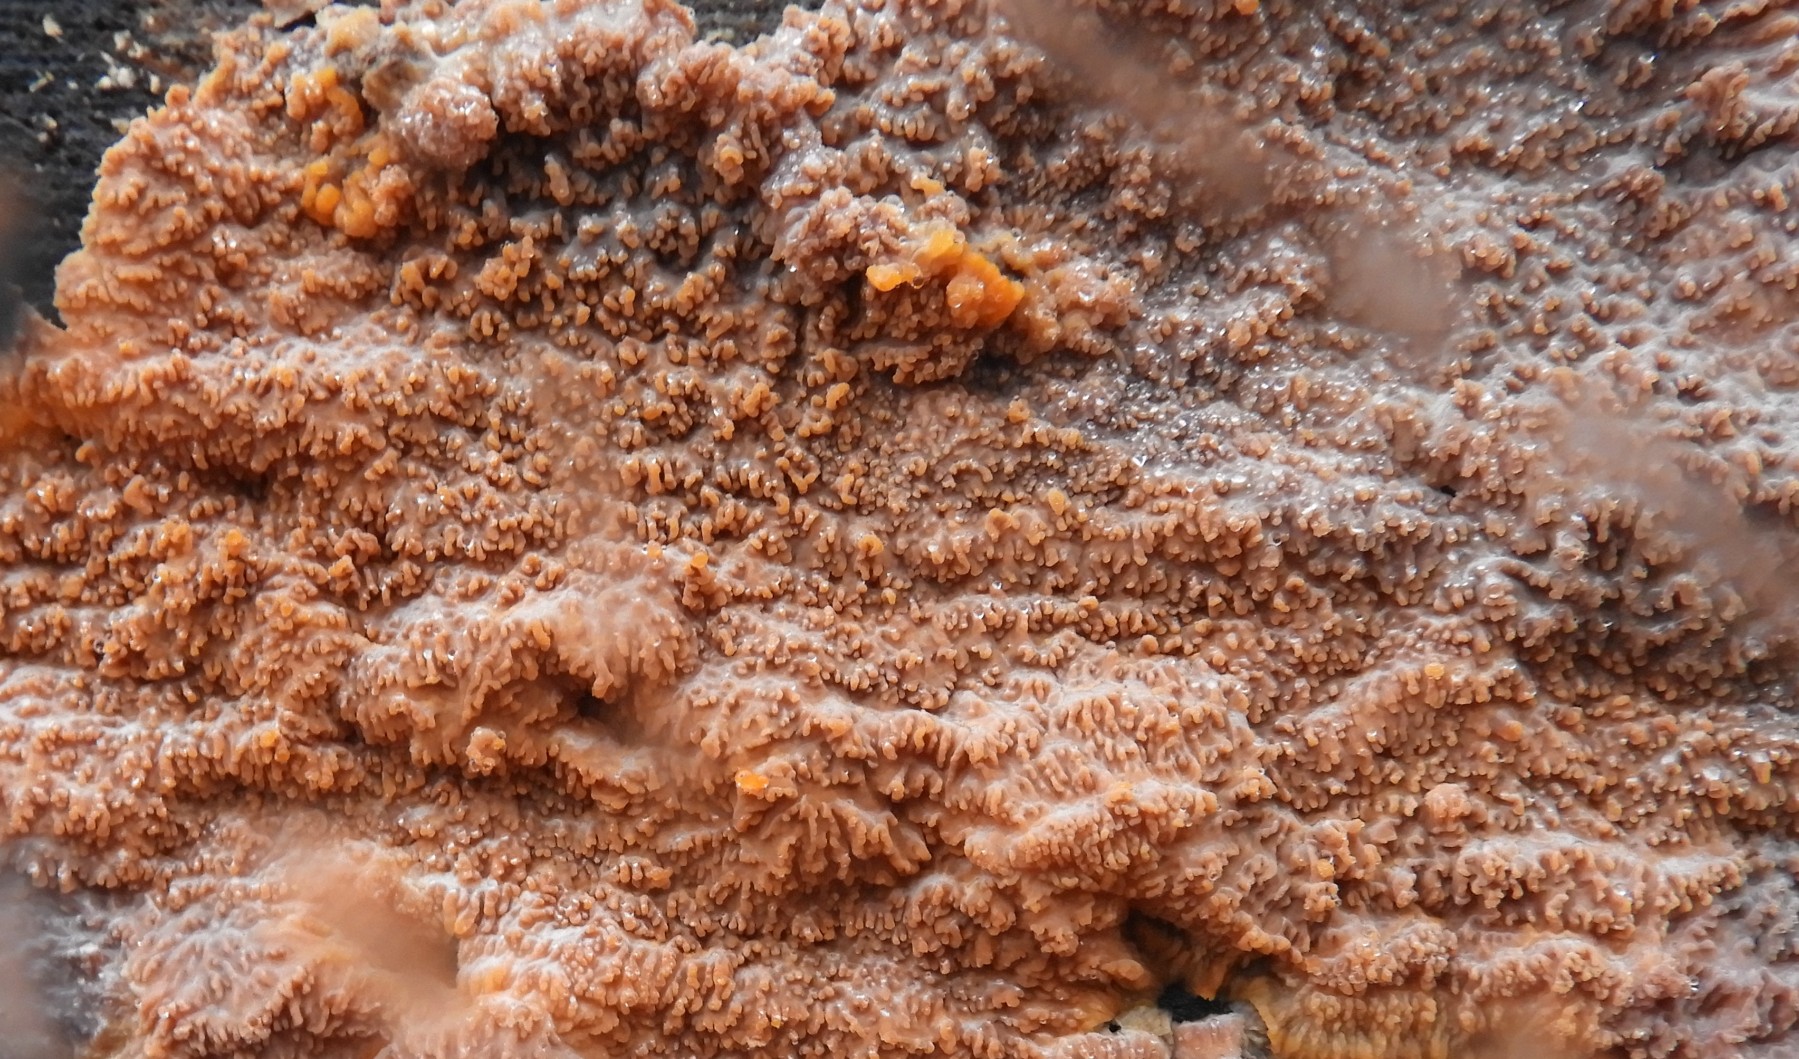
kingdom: Fungi
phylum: Basidiomycota
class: Agaricomycetes
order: Polyporales
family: Meruliaceae
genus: Phlebia
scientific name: Phlebia radiata
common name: stråle-åresvamp
